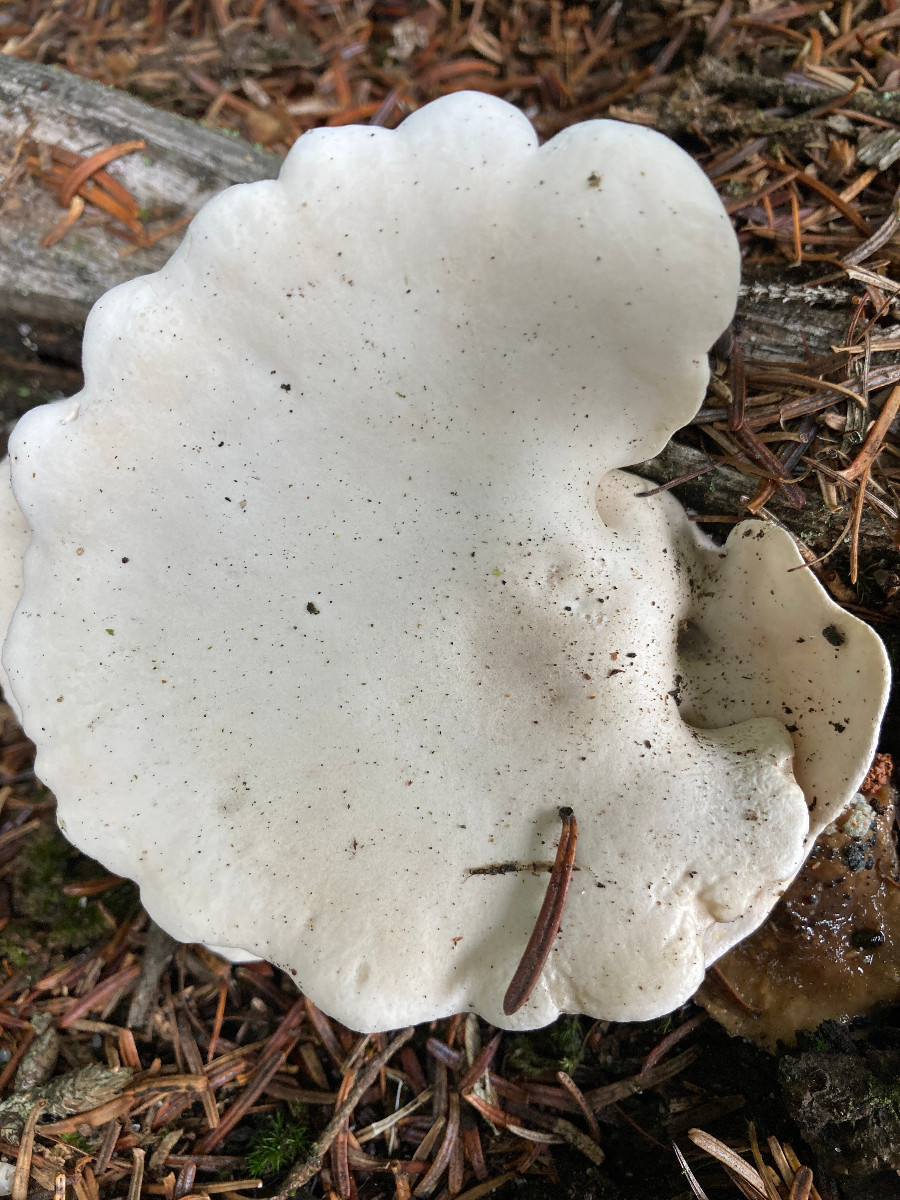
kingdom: Fungi
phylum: Basidiomycota
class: Agaricomycetes
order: Agaricales
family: Entolomataceae
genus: Clitopilus
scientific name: Clitopilus prunulus
